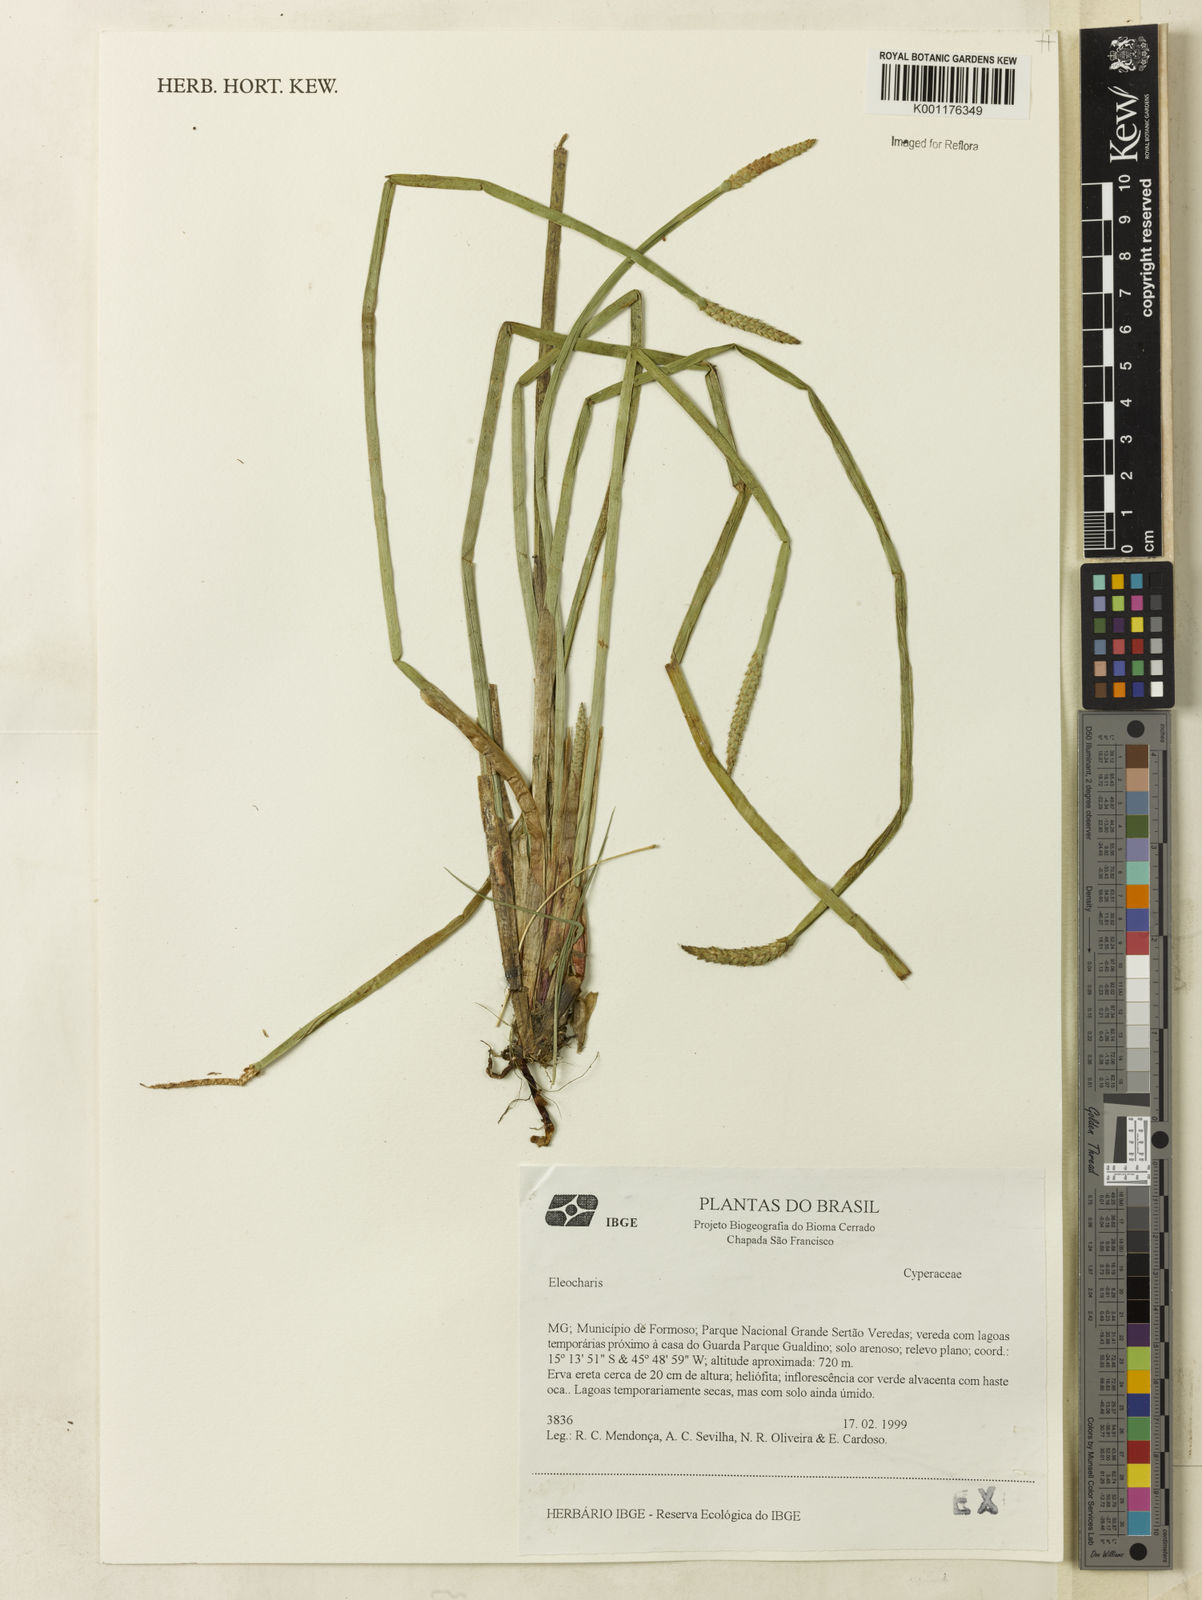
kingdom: Plantae
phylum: Tracheophyta
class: Liliopsida
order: Poales
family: Cyperaceae
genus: Eleocharis
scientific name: Eleocharis
